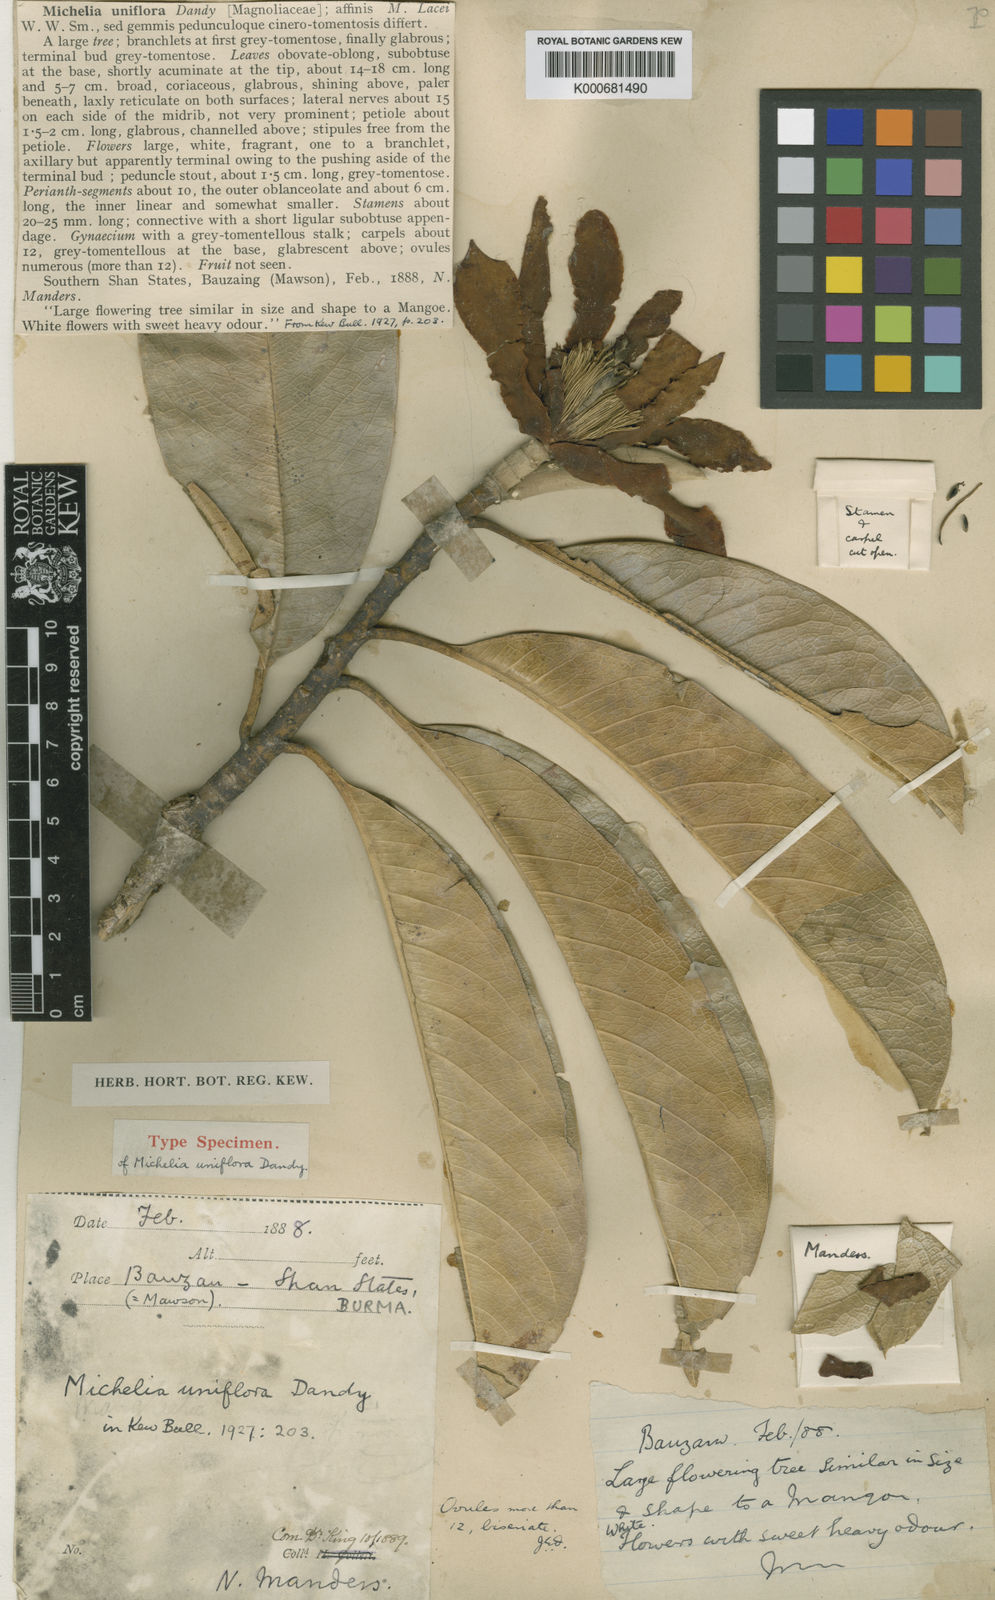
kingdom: Plantae
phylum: Tracheophyta
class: Magnoliopsida
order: Magnoliales
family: Magnoliaceae
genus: Magnolia
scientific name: Magnolia lacei
